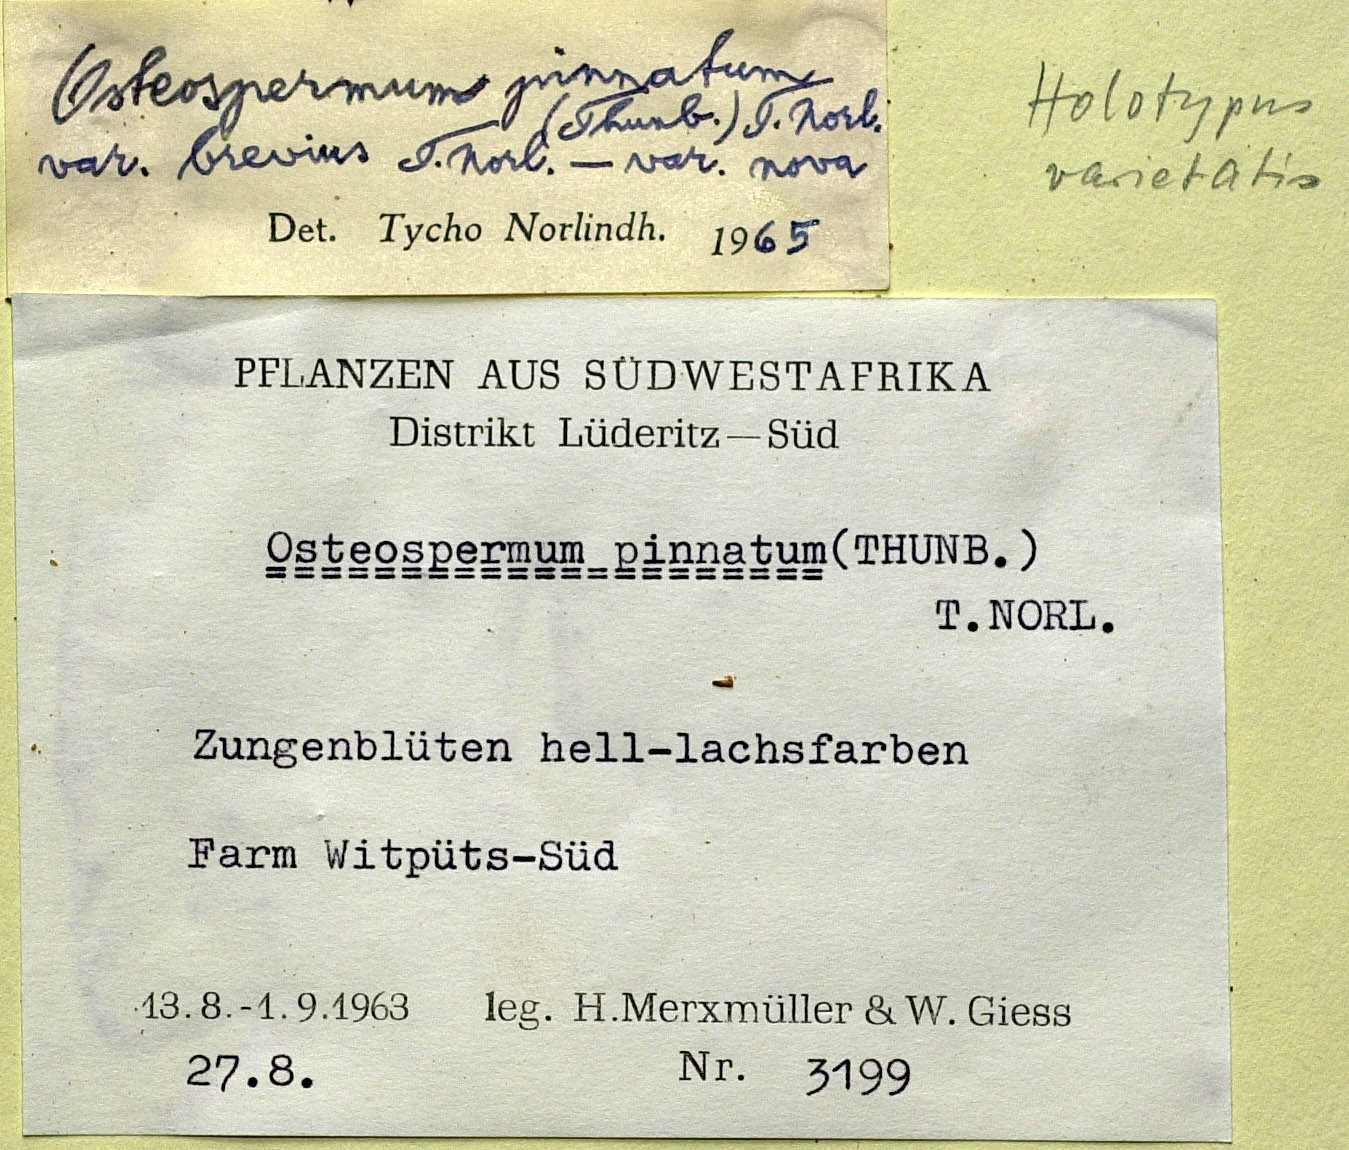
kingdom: Plantae
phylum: Tracheophyta
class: Magnoliopsida
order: Asterales
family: Asteraceae
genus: Dimorphotheca
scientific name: Dimorphotheca pinnata
